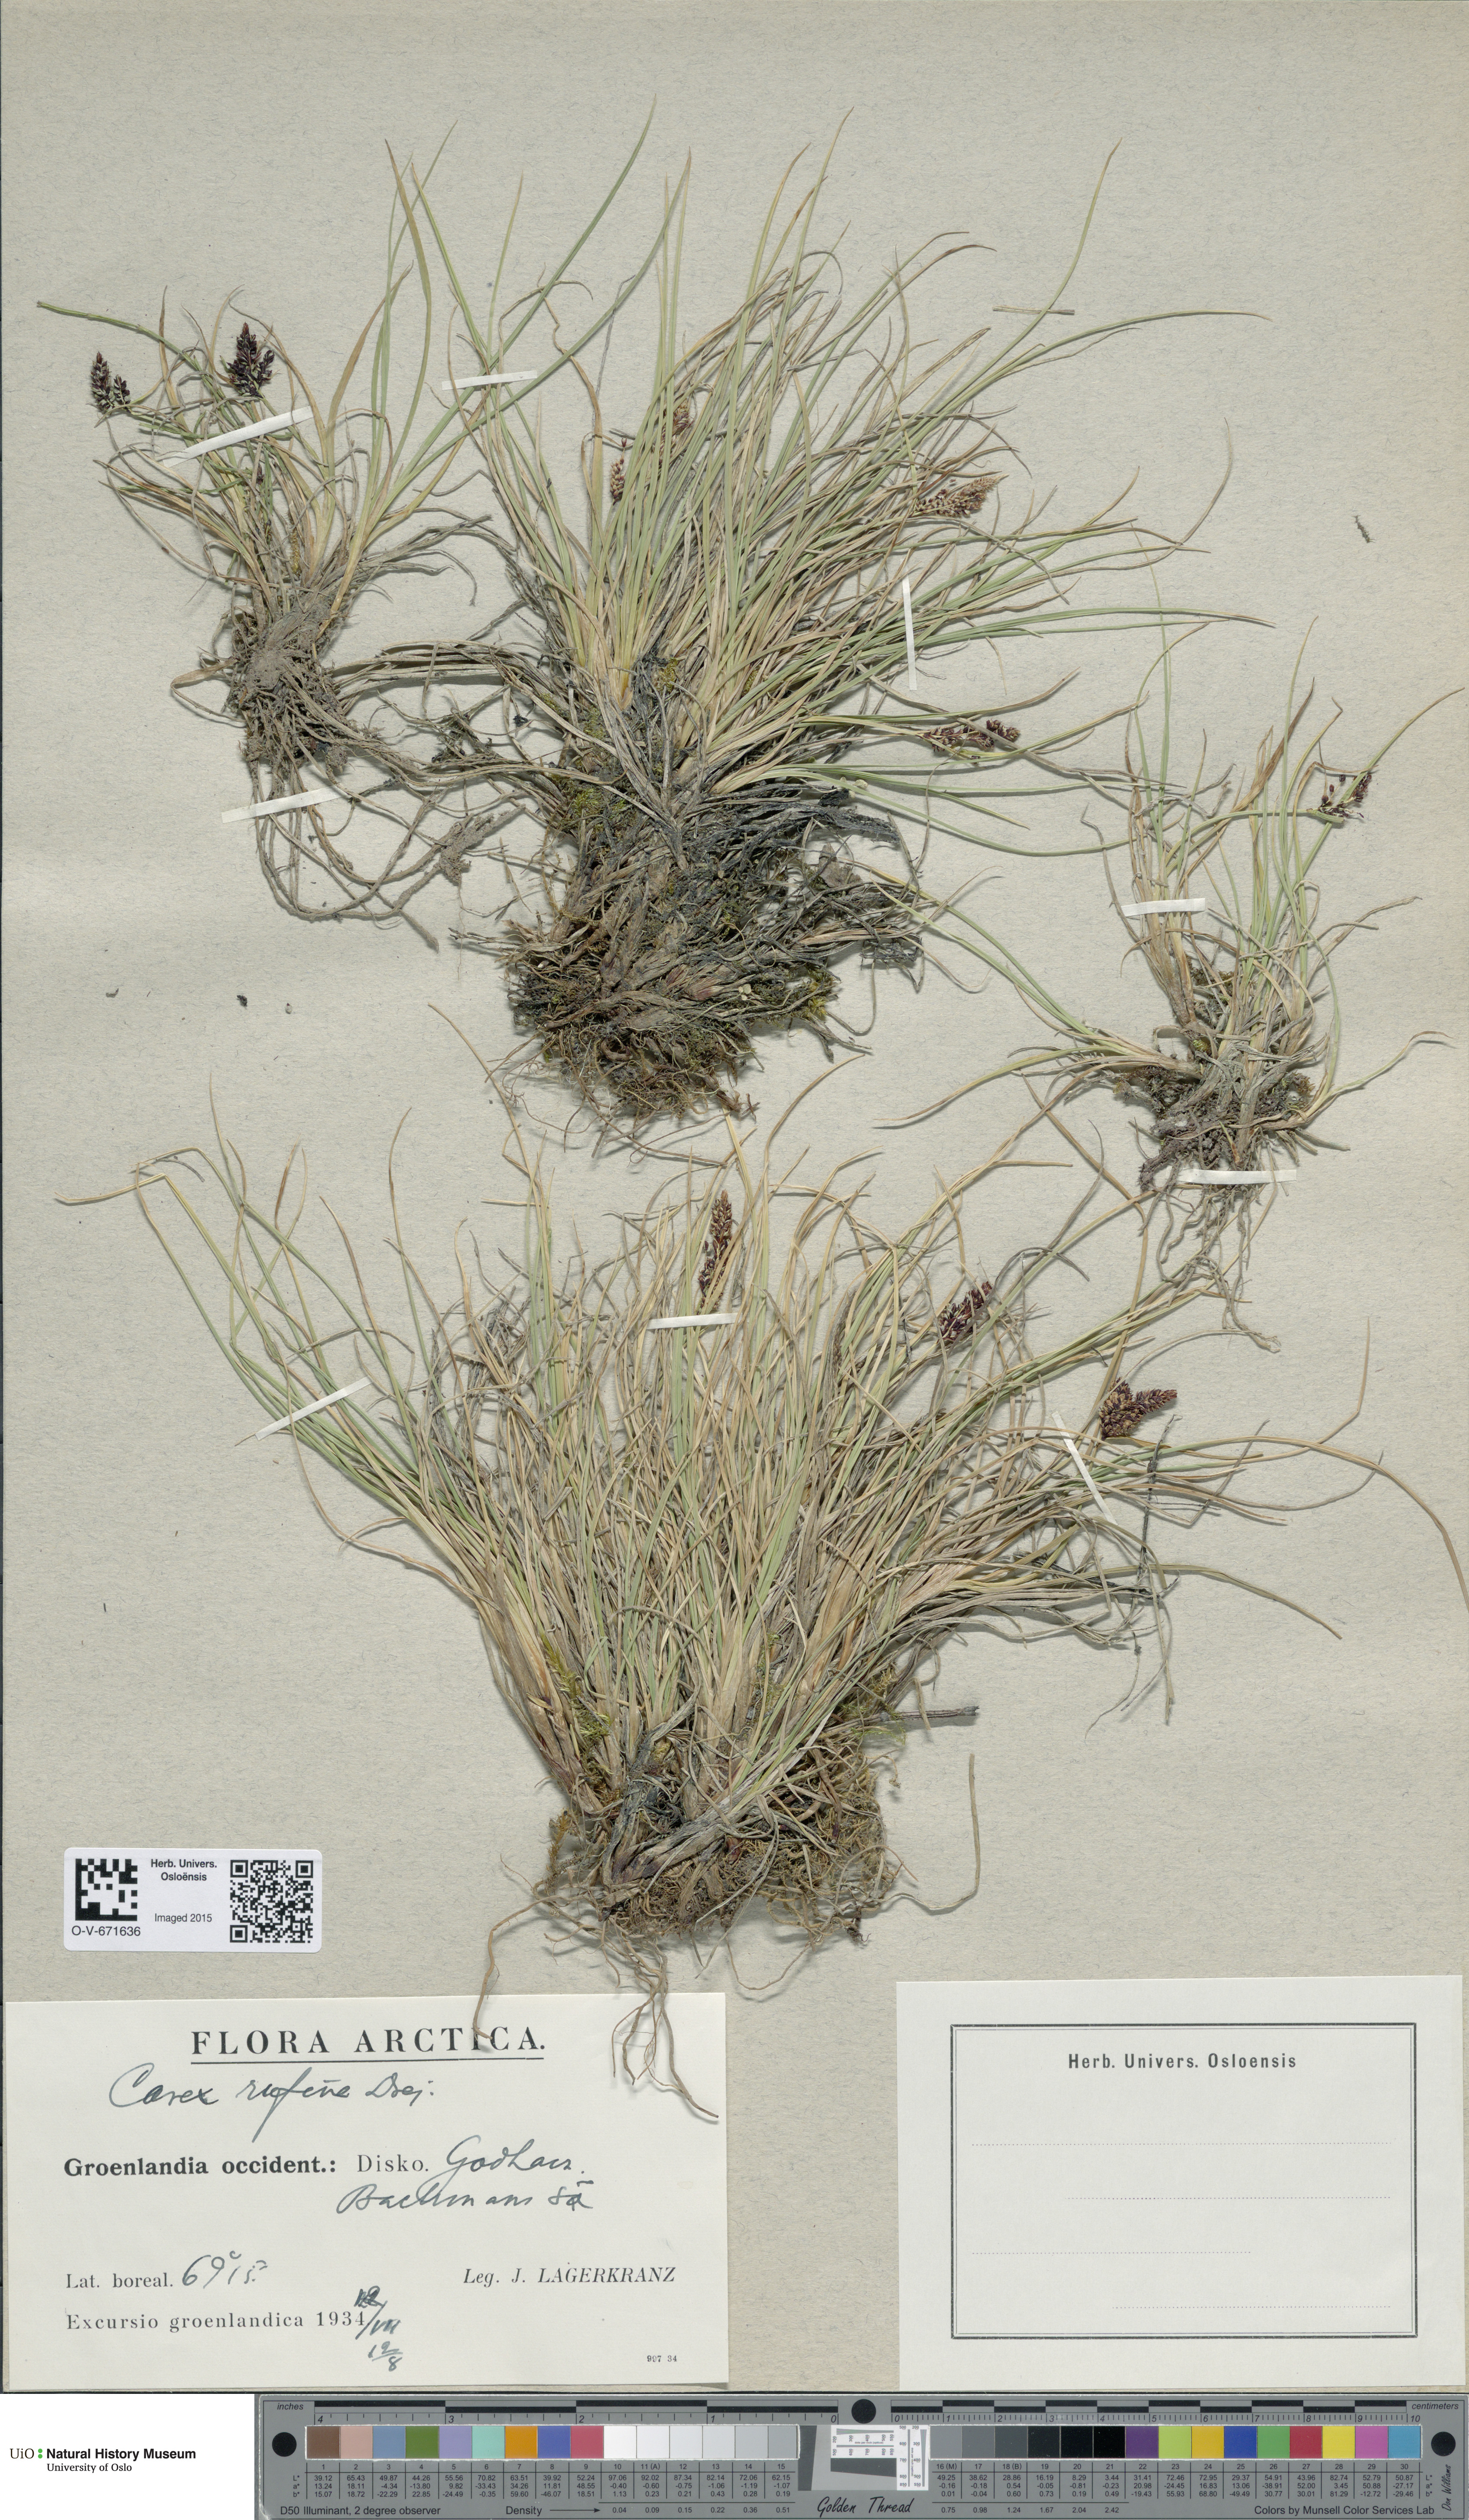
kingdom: Plantae
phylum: Tracheophyta
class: Liliopsida
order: Poales
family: Cyperaceae
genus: Carex
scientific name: Carex rufina
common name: Reddish sedge
